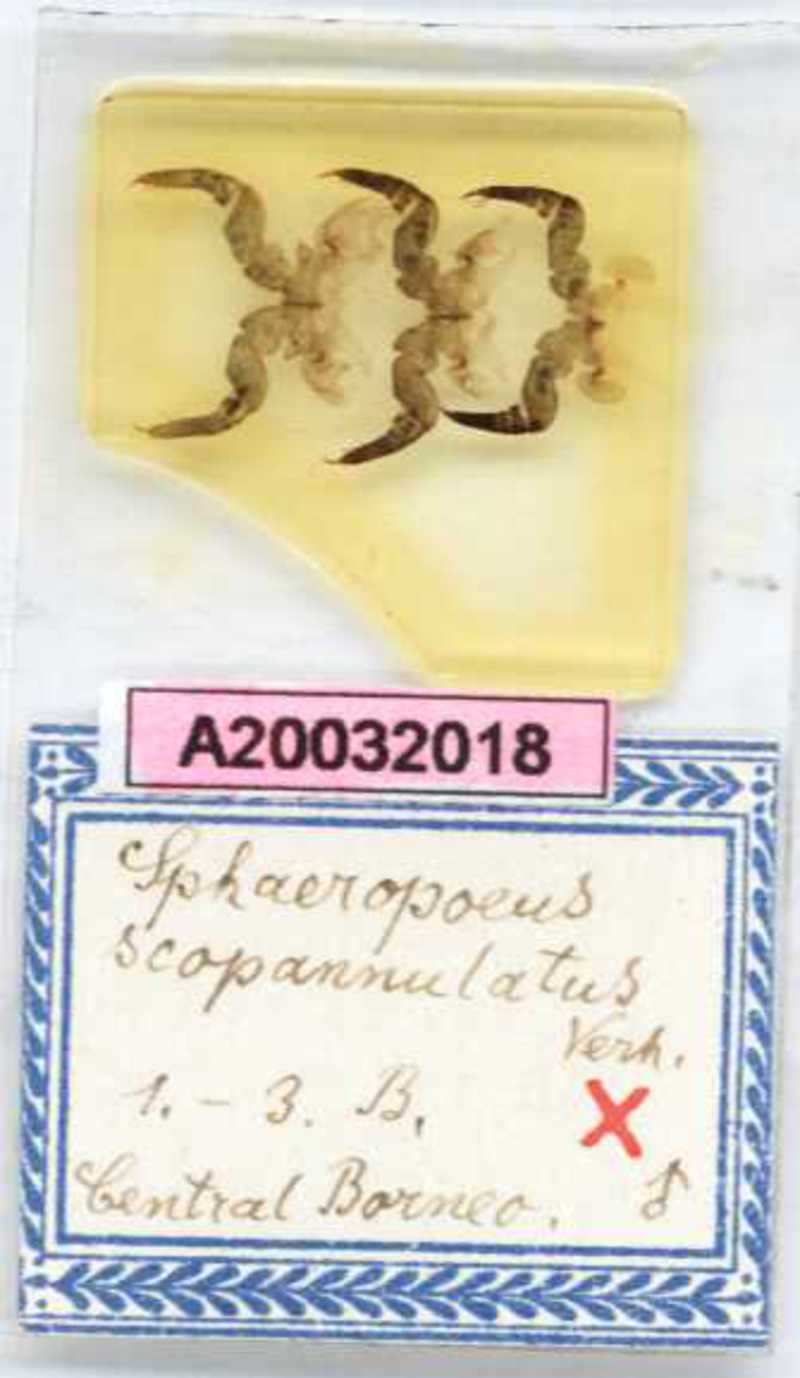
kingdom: Animalia
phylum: Arthropoda
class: Diplopoda
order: Sphaerotheriida
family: Zephroniidae
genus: Sphaeropoeus
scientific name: Sphaeropoeus
